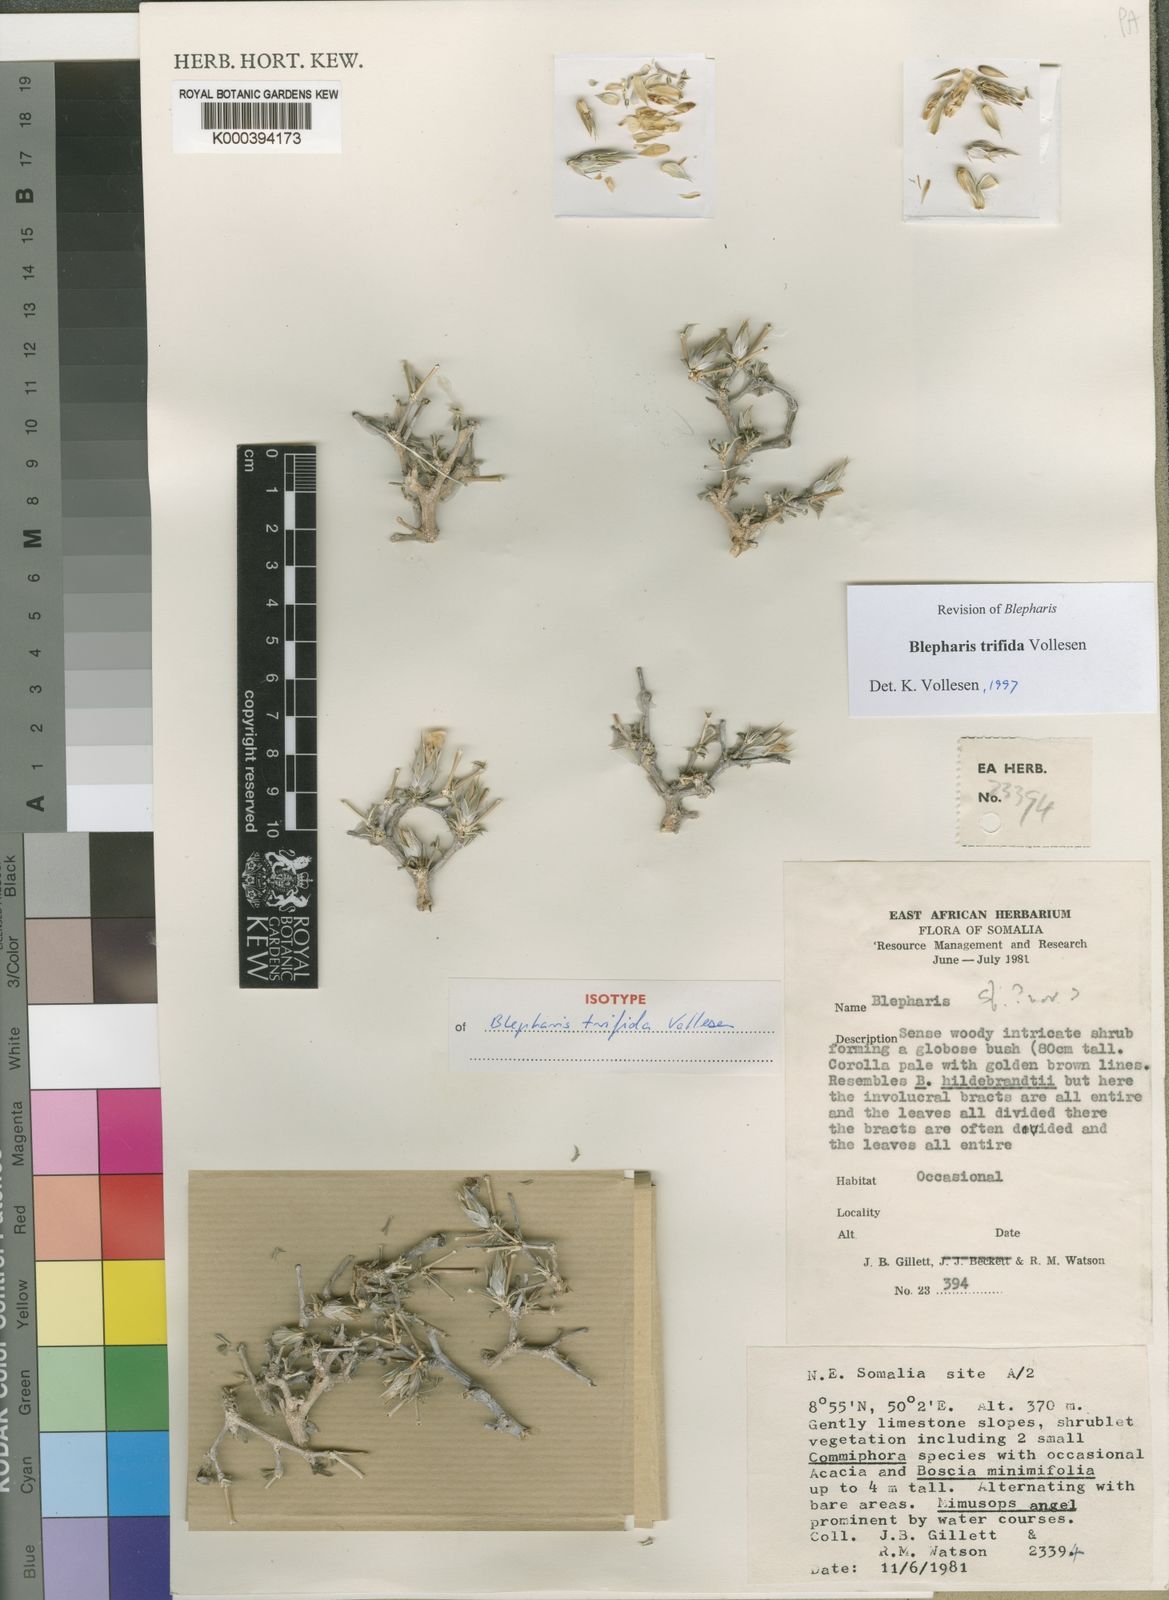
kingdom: Plantae
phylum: Tracheophyta
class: Magnoliopsida
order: Lamiales
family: Acanthaceae
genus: Blepharis
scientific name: Blepharis trifida
